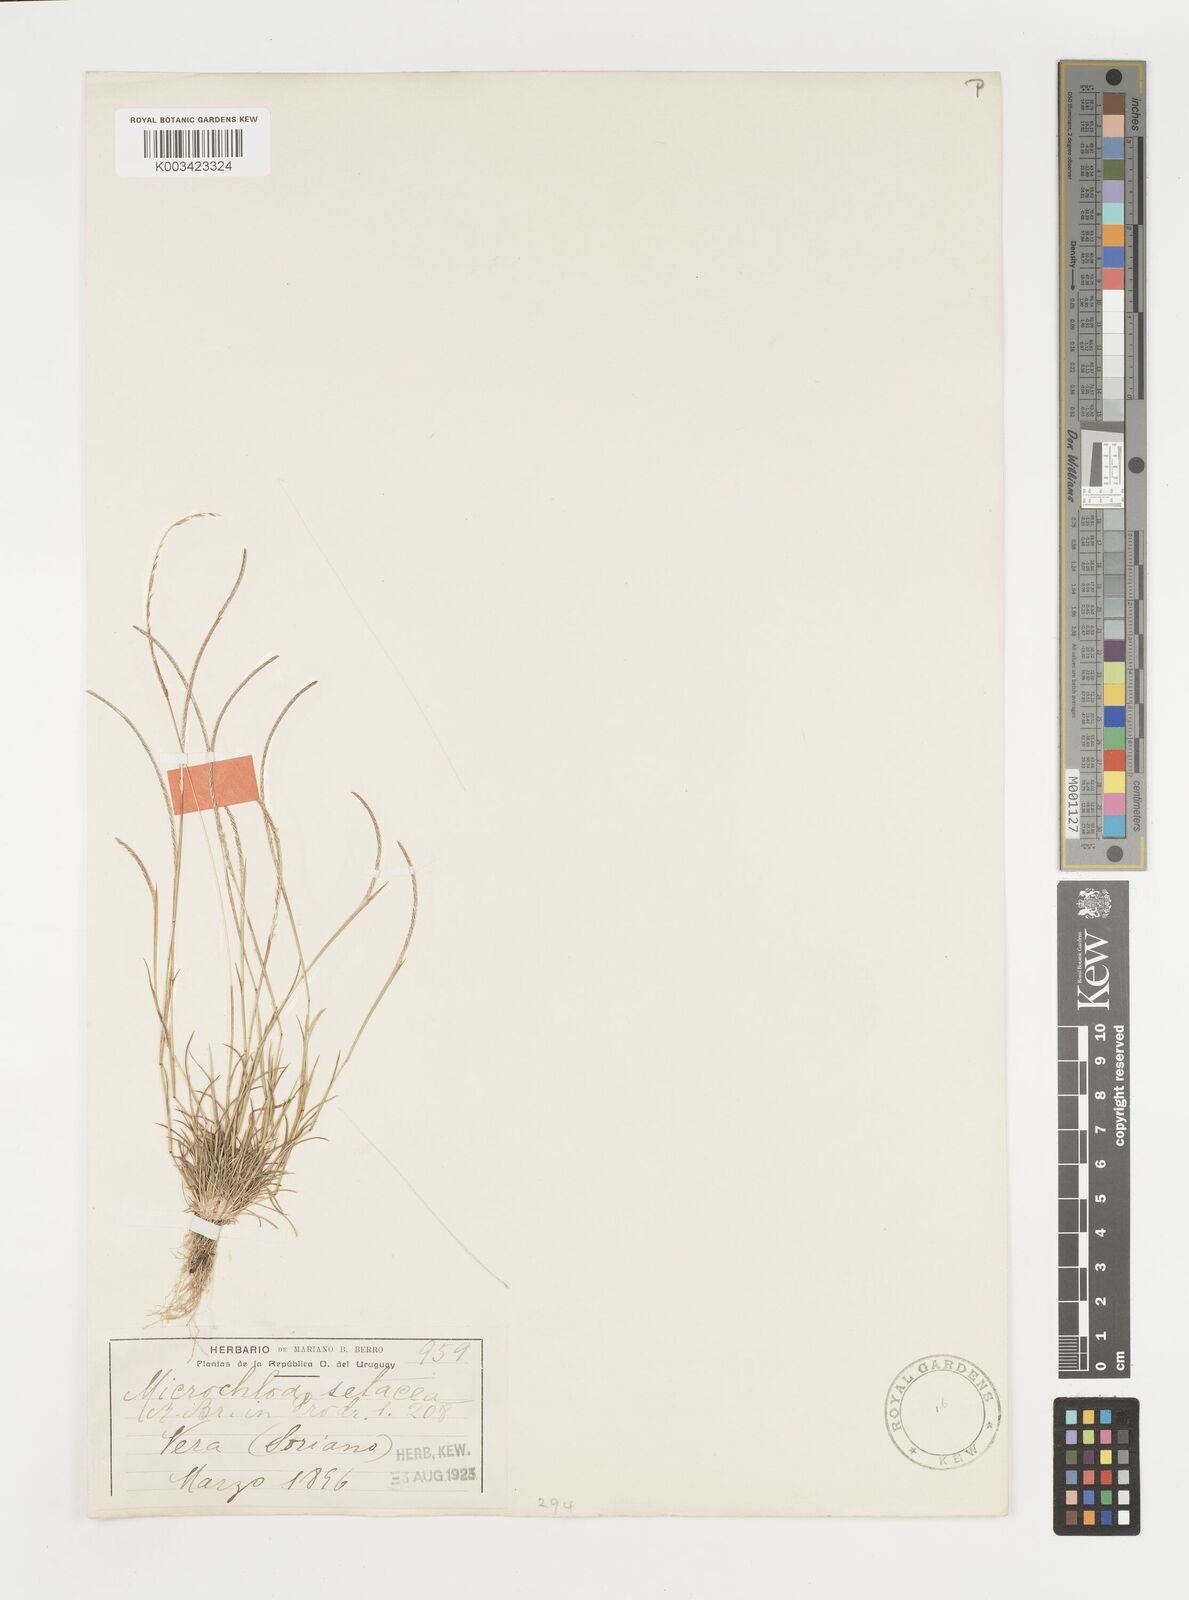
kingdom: Plantae
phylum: Tracheophyta
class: Liliopsida
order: Poales
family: Poaceae
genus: Microchloa
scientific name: Microchloa kunthii
